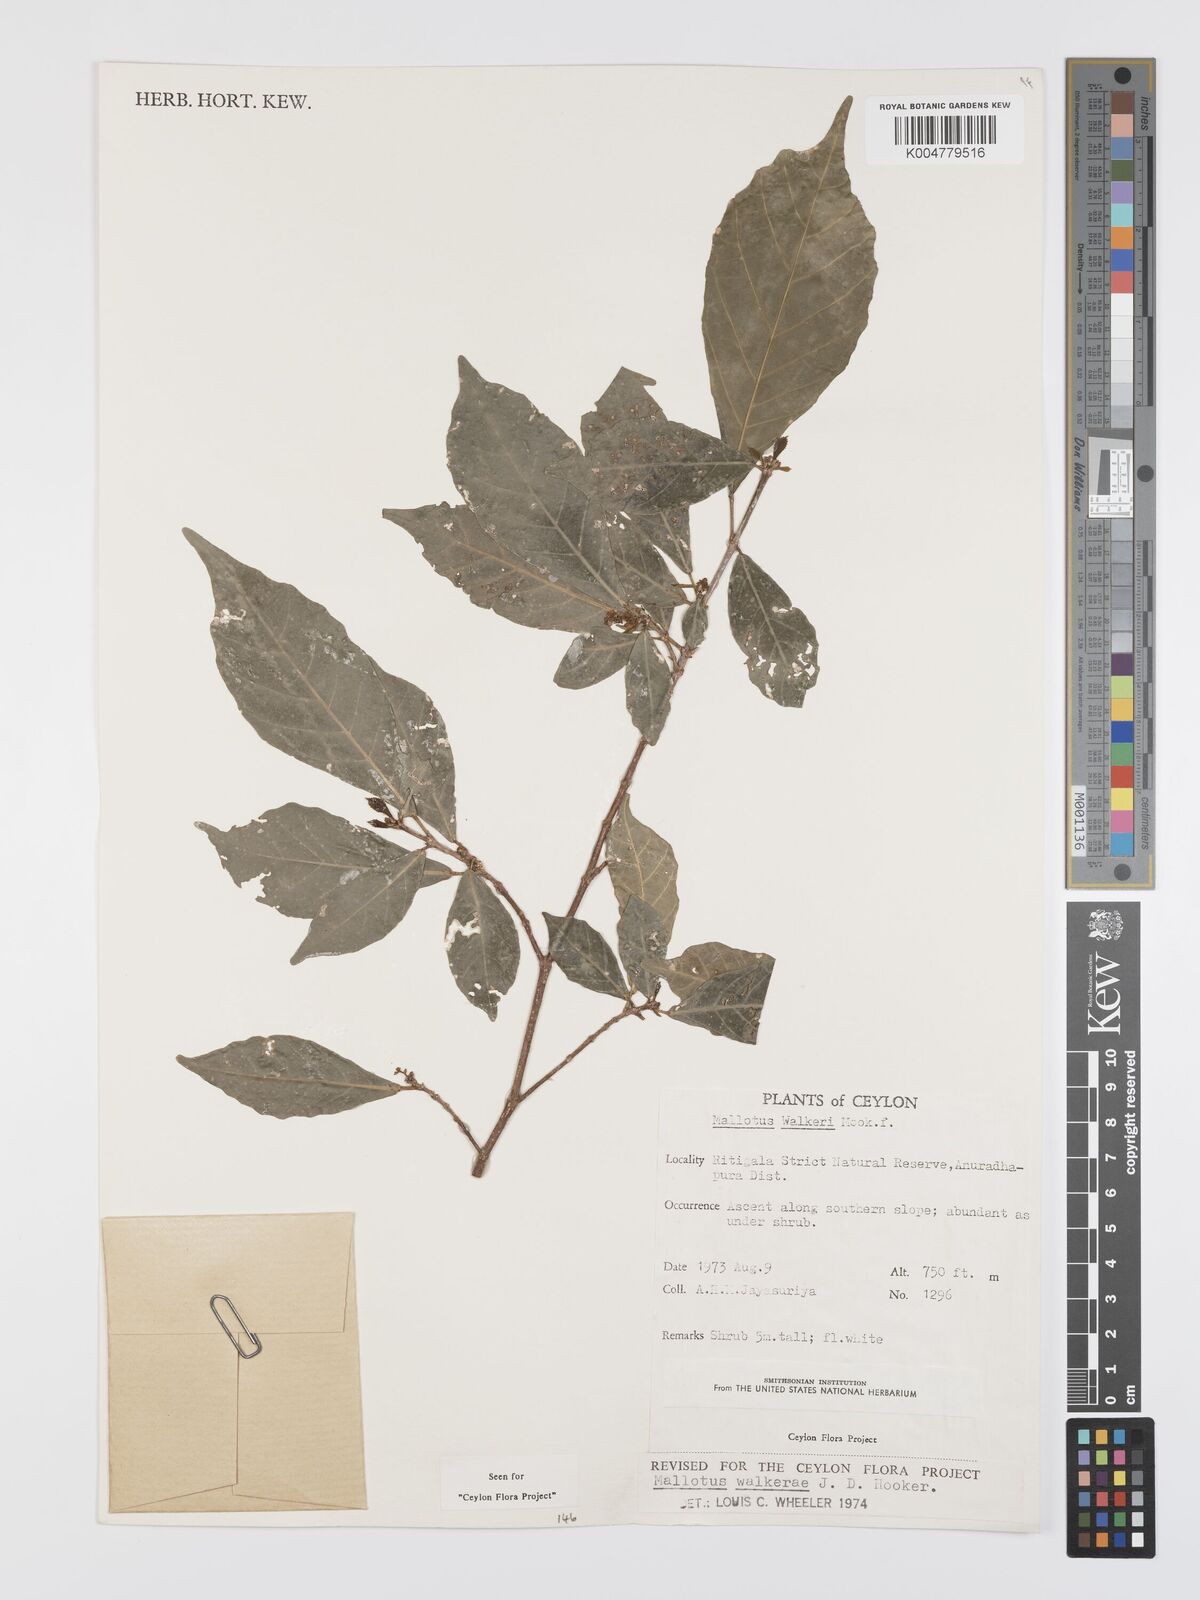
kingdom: Plantae
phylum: Tracheophyta
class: Magnoliopsida
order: Malpighiales
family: Euphorbiaceae
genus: Mallotus
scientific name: Mallotus resinosus
